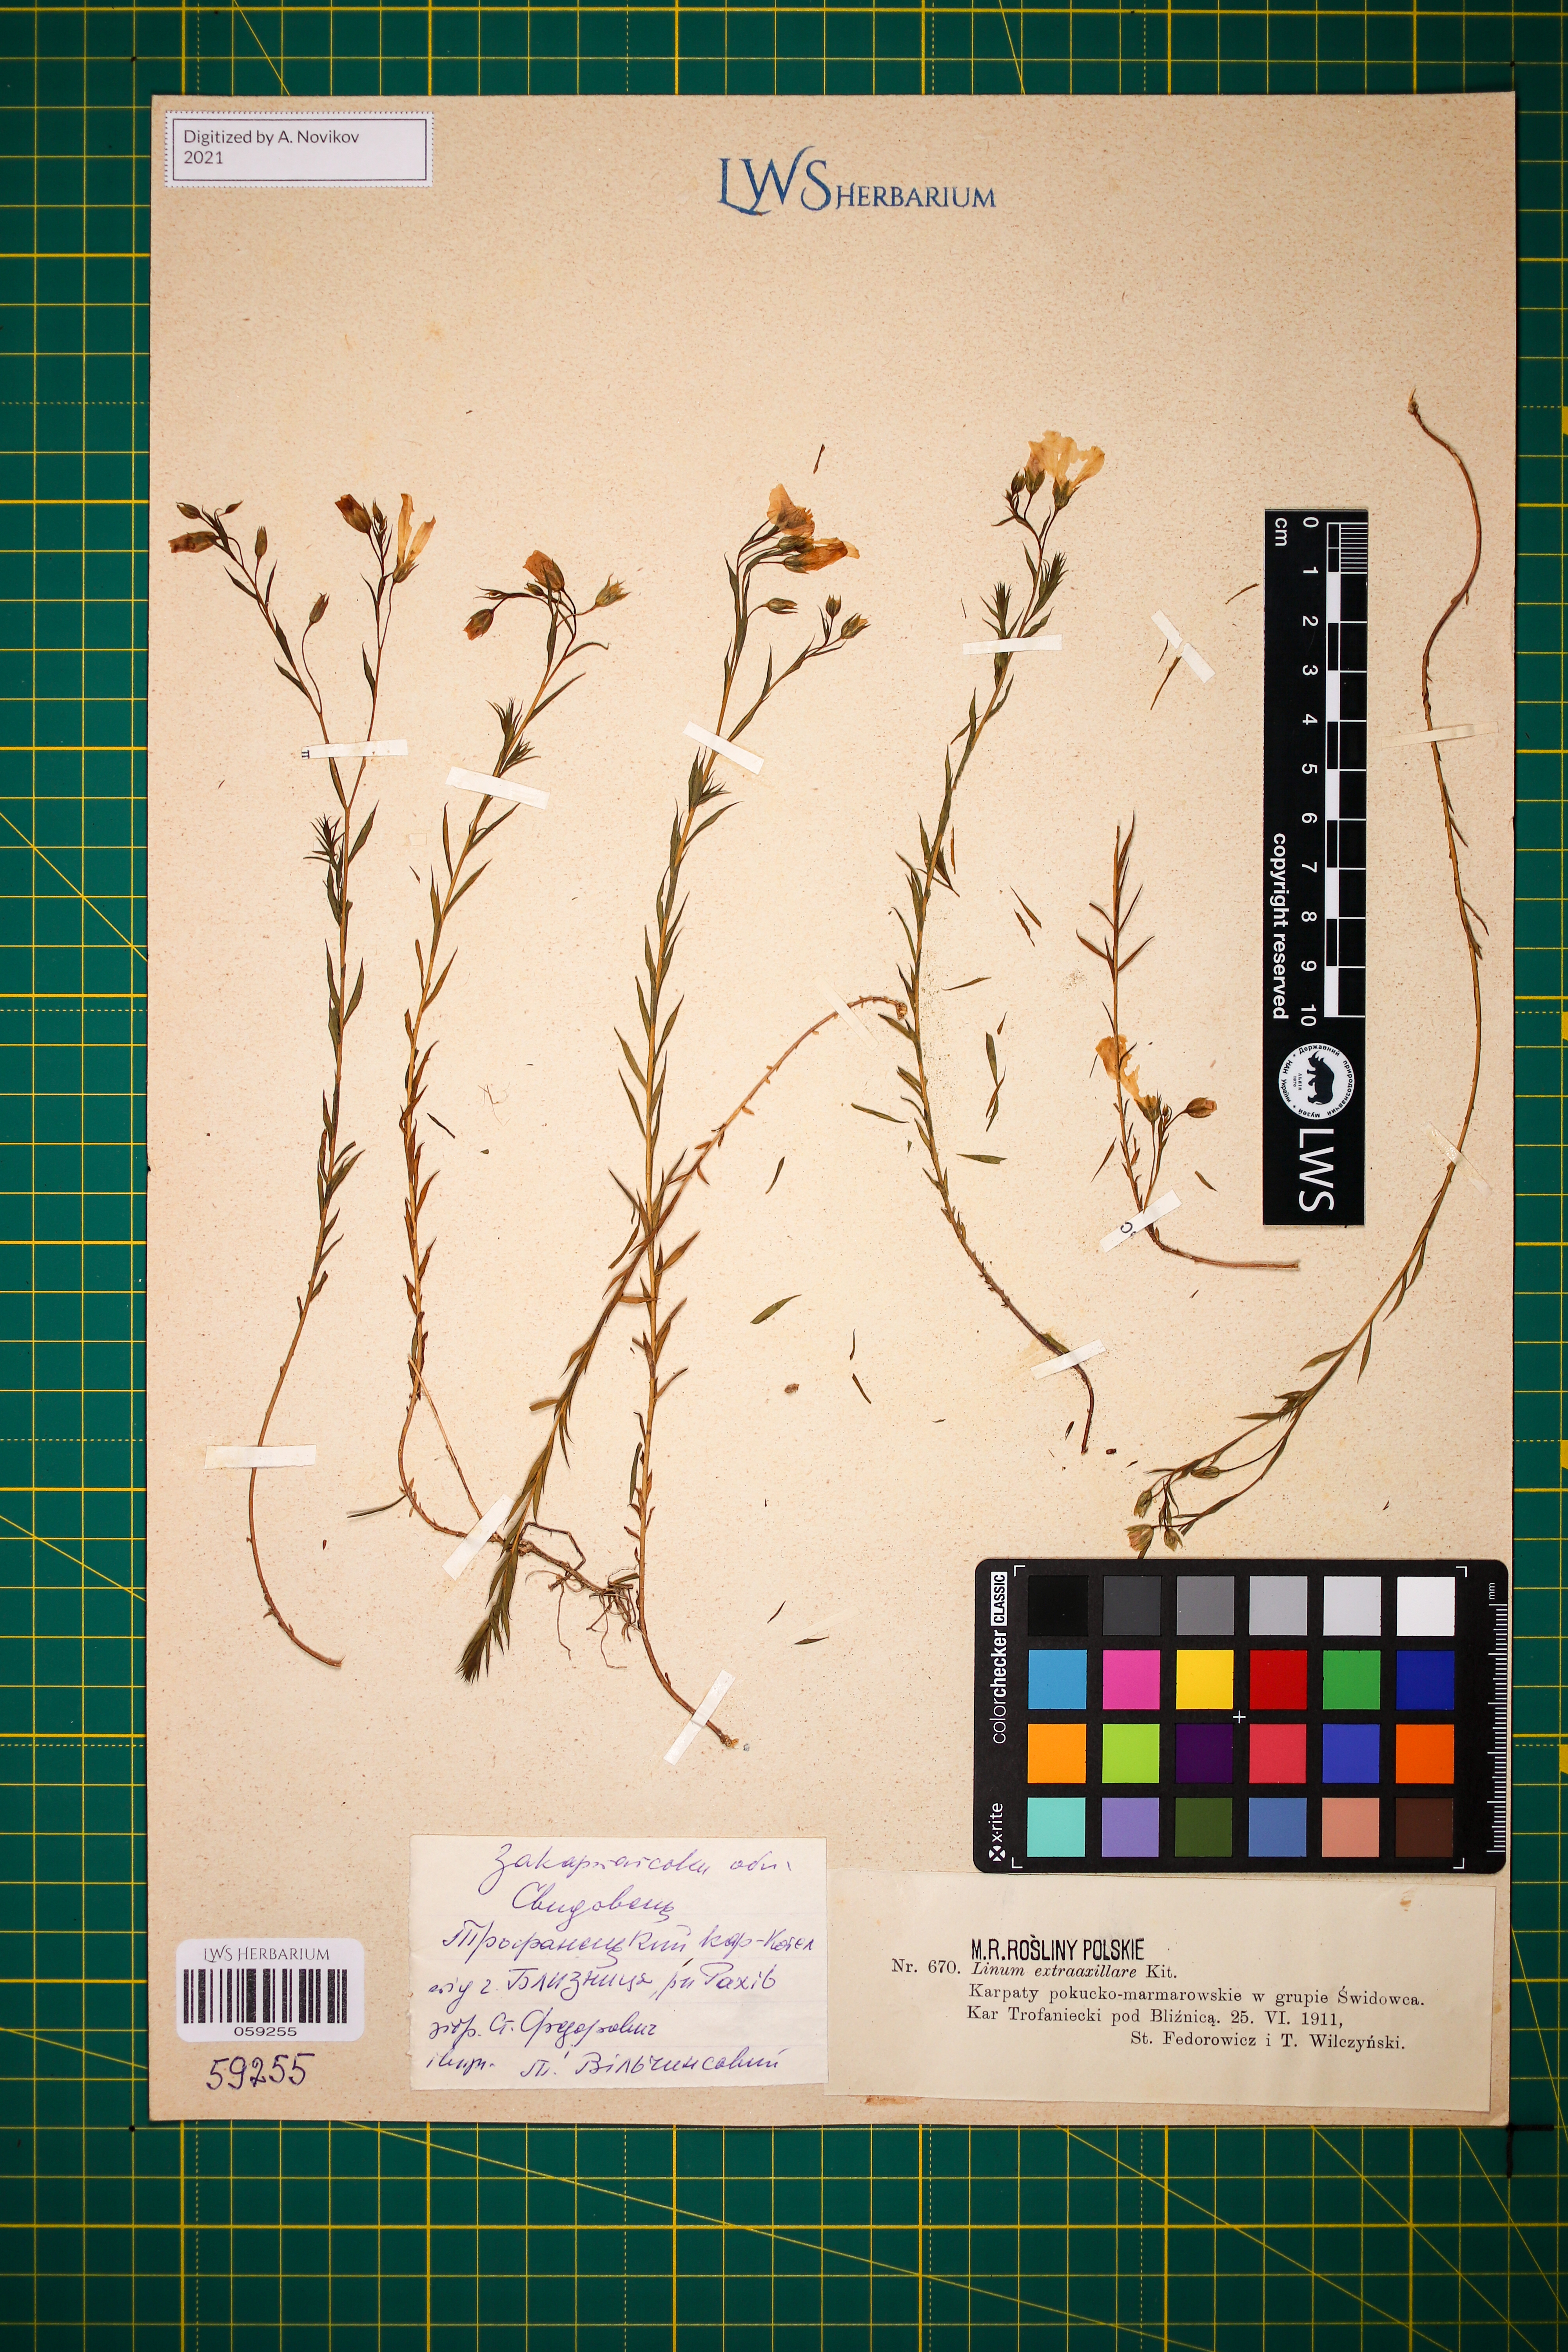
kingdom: Plantae
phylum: Tracheophyta
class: Magnoliopsida
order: Malpighiales
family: Linaceae
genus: Linum
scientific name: Linum perenne
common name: Blue flax
